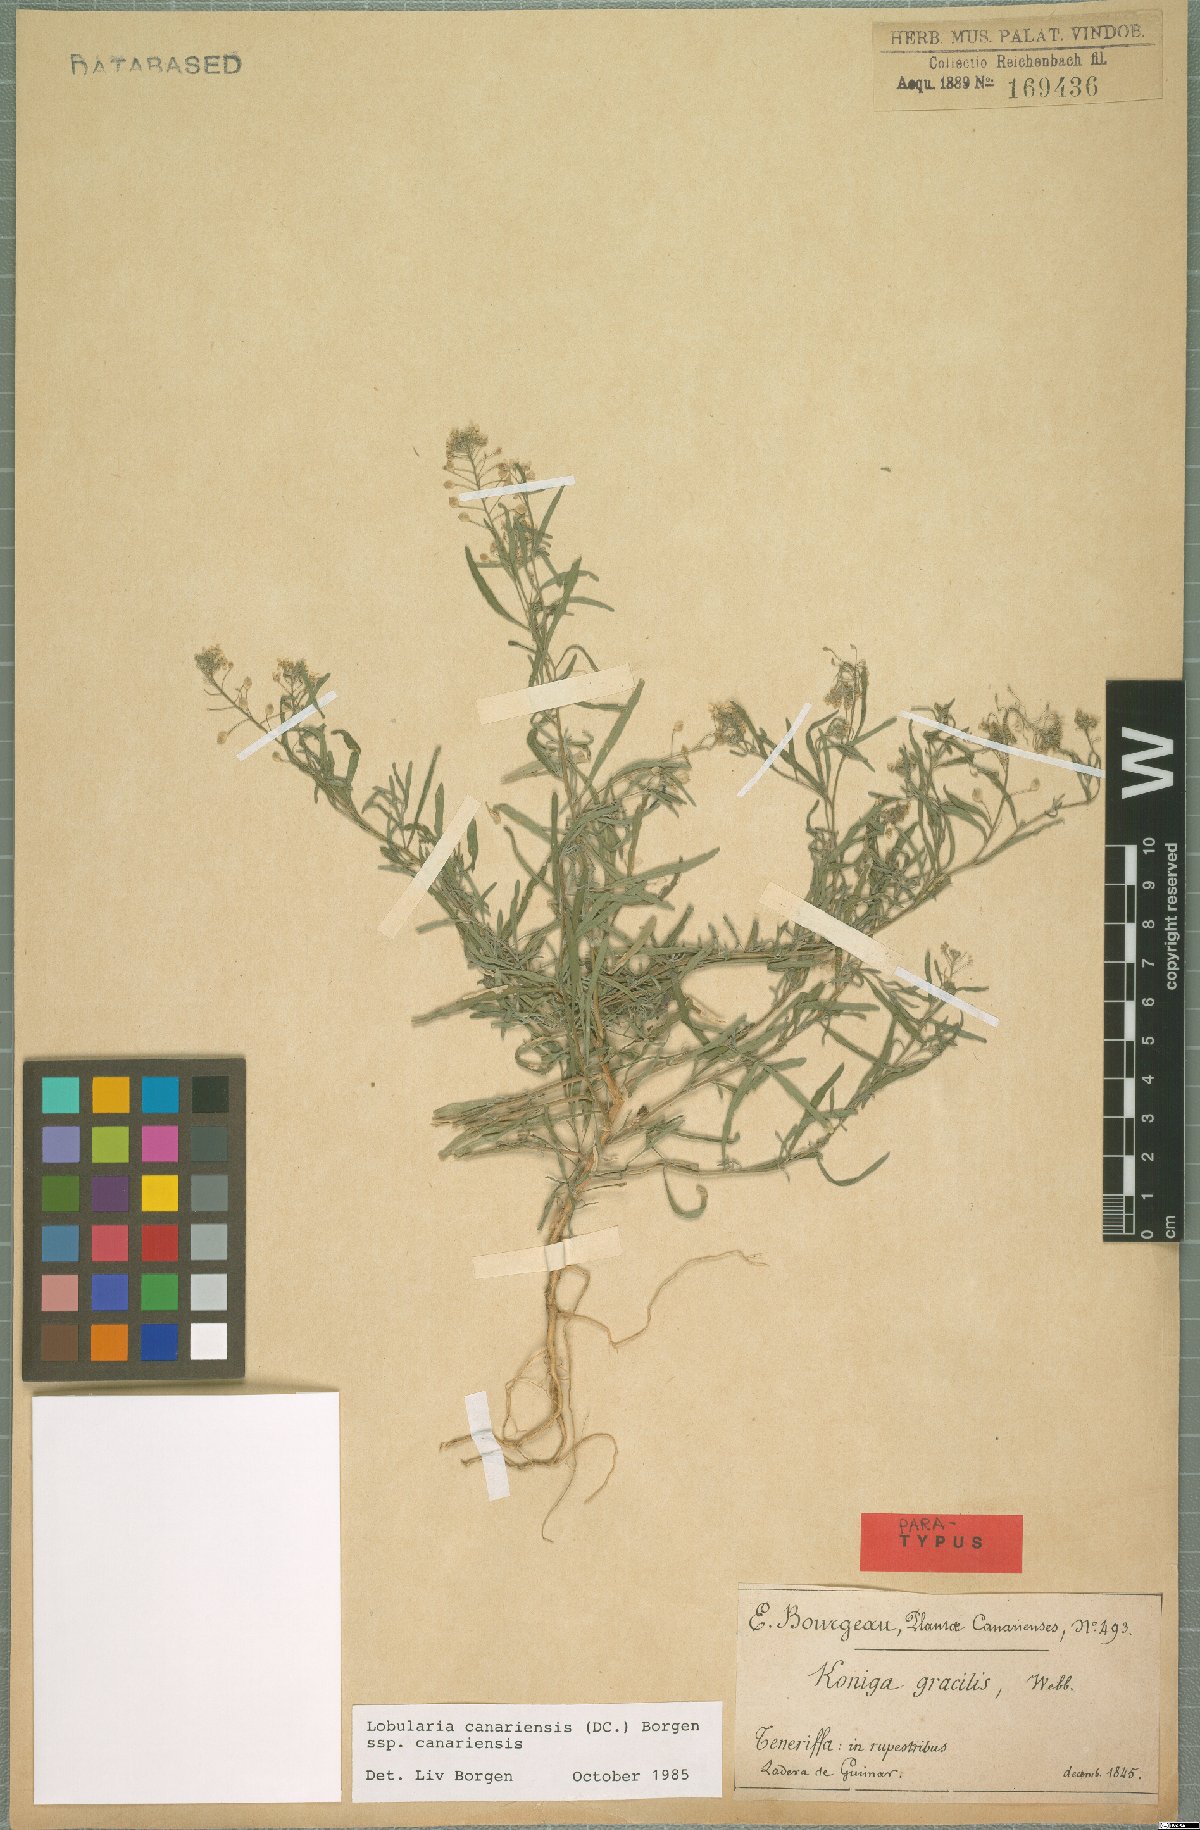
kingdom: Plantae
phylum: Tracheophyta
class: Magnoliopsida
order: Brassicales
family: Brassicaceae
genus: Lobularia
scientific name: Lobularia canariensis
